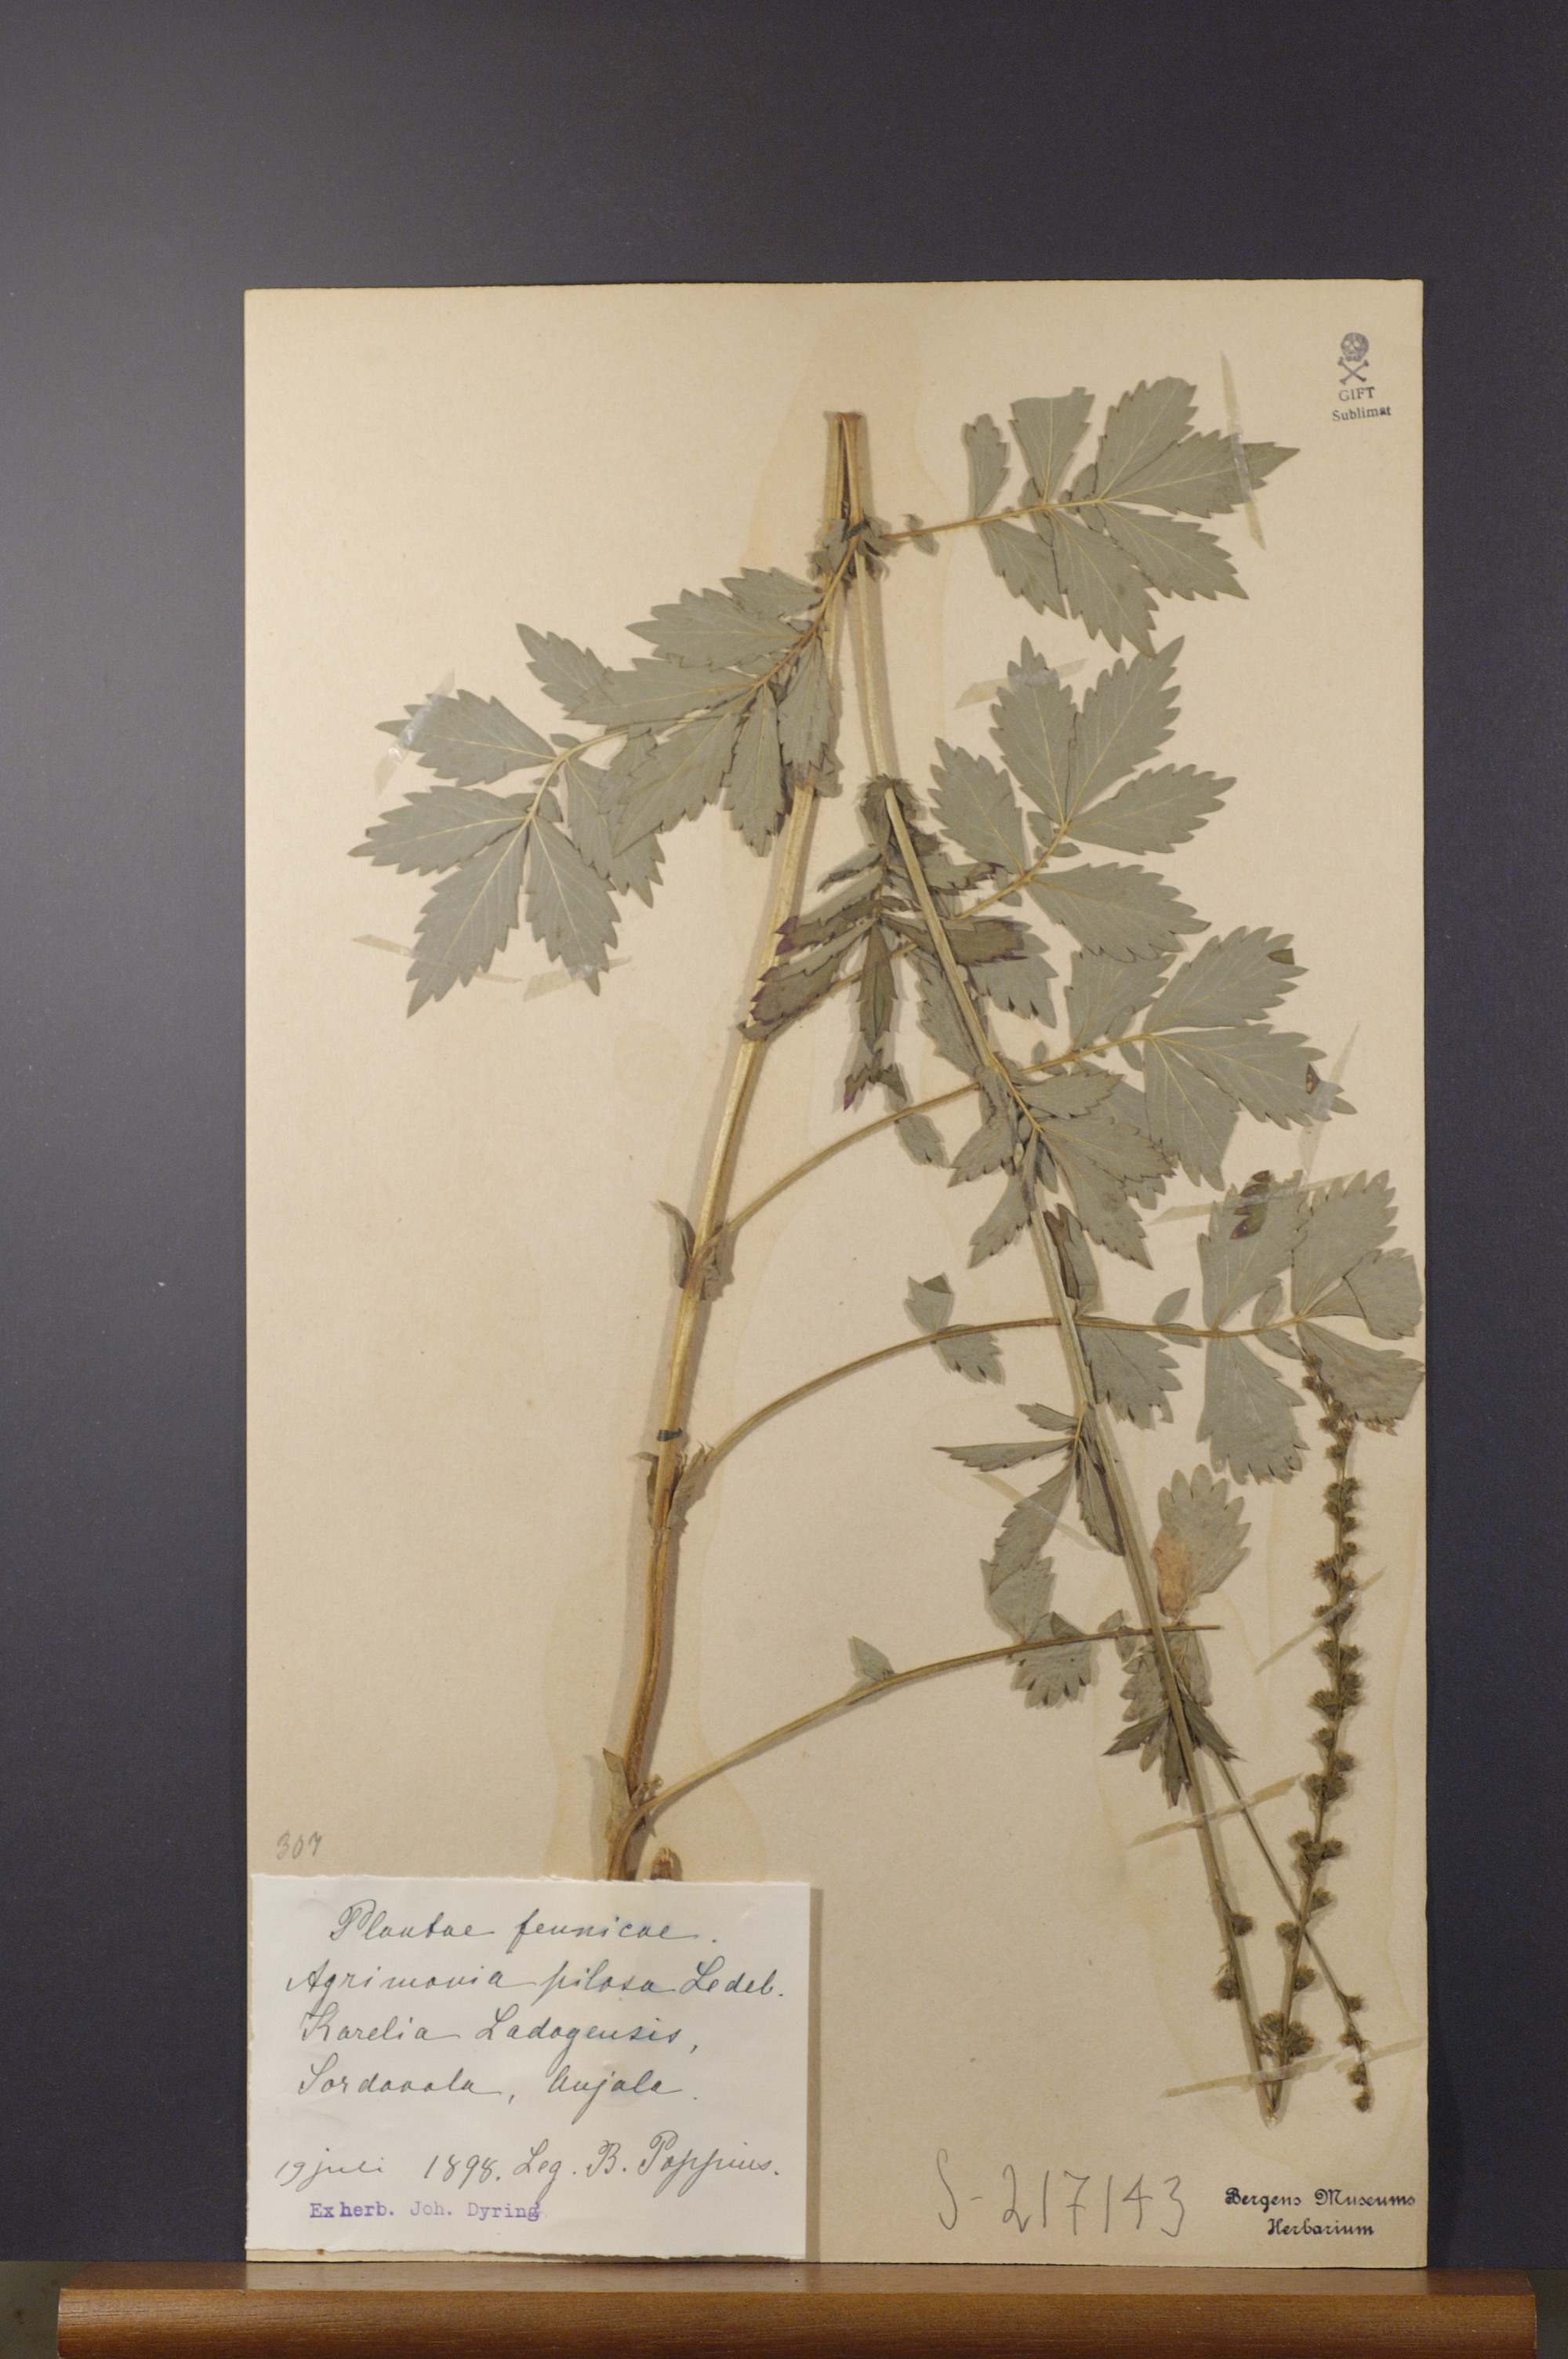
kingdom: Plantae
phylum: Tracheophyta
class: Magnoliopsida
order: Rosales
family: Rosaceae
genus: Agrimonia
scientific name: Agrimonia pilosa
